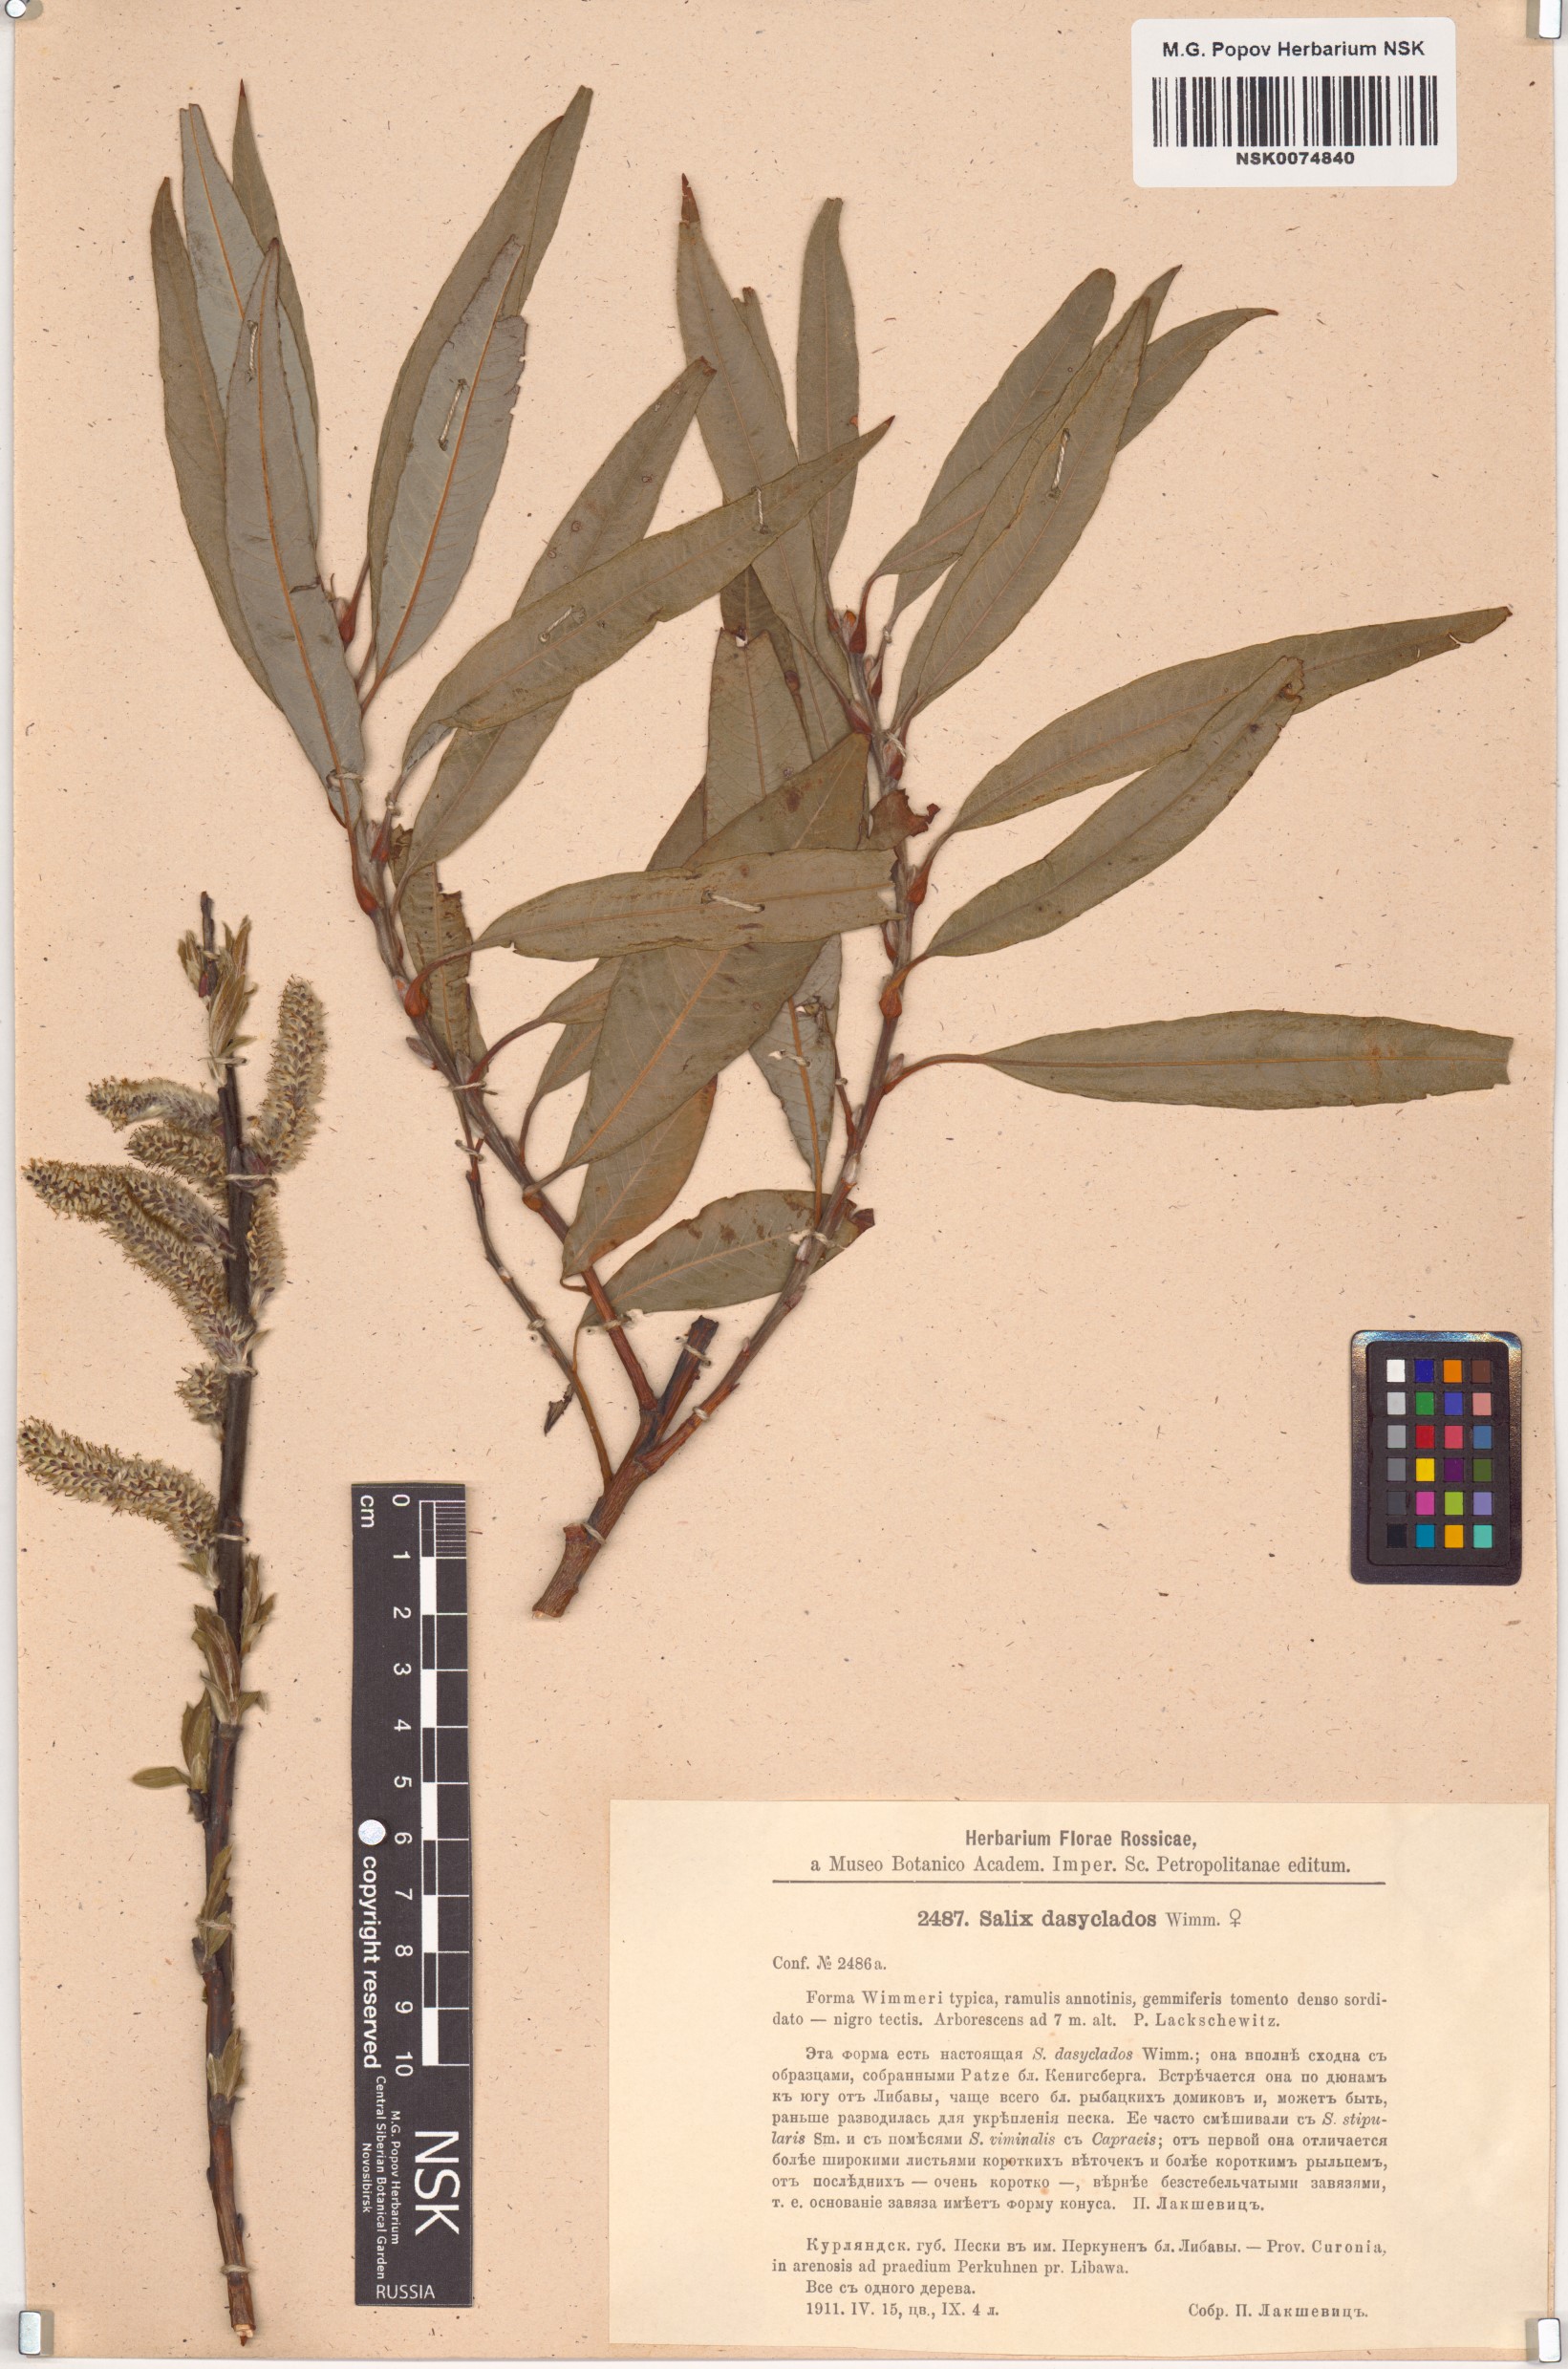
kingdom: Plantae
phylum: Tracheophyta
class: Magnoliopsida
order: Malpighiales
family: Salicaceae
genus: Salix
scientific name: Salix gmelinii
